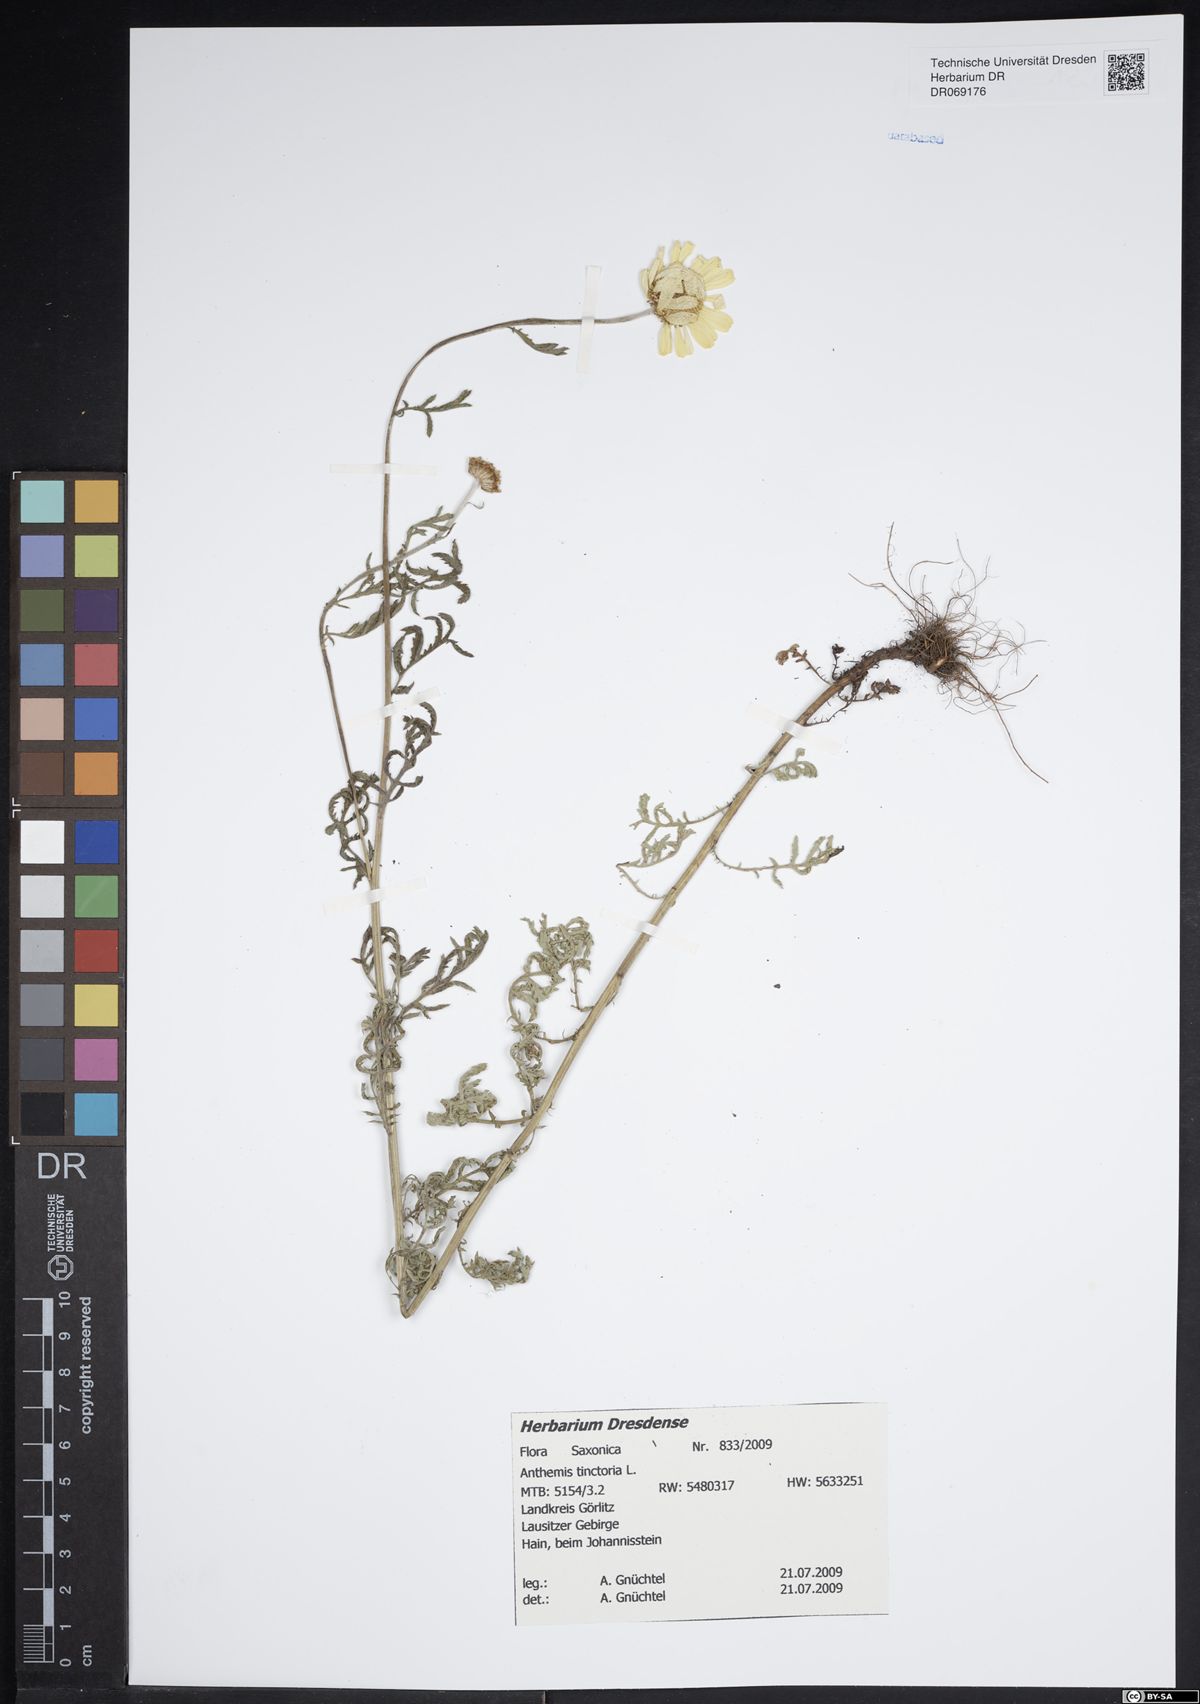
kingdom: Plantae
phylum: Tracheophyta
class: Magnoliopsida
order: Asterales
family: Asteraceae
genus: Cota
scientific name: Cota tinctoria
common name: Golden chamomile
